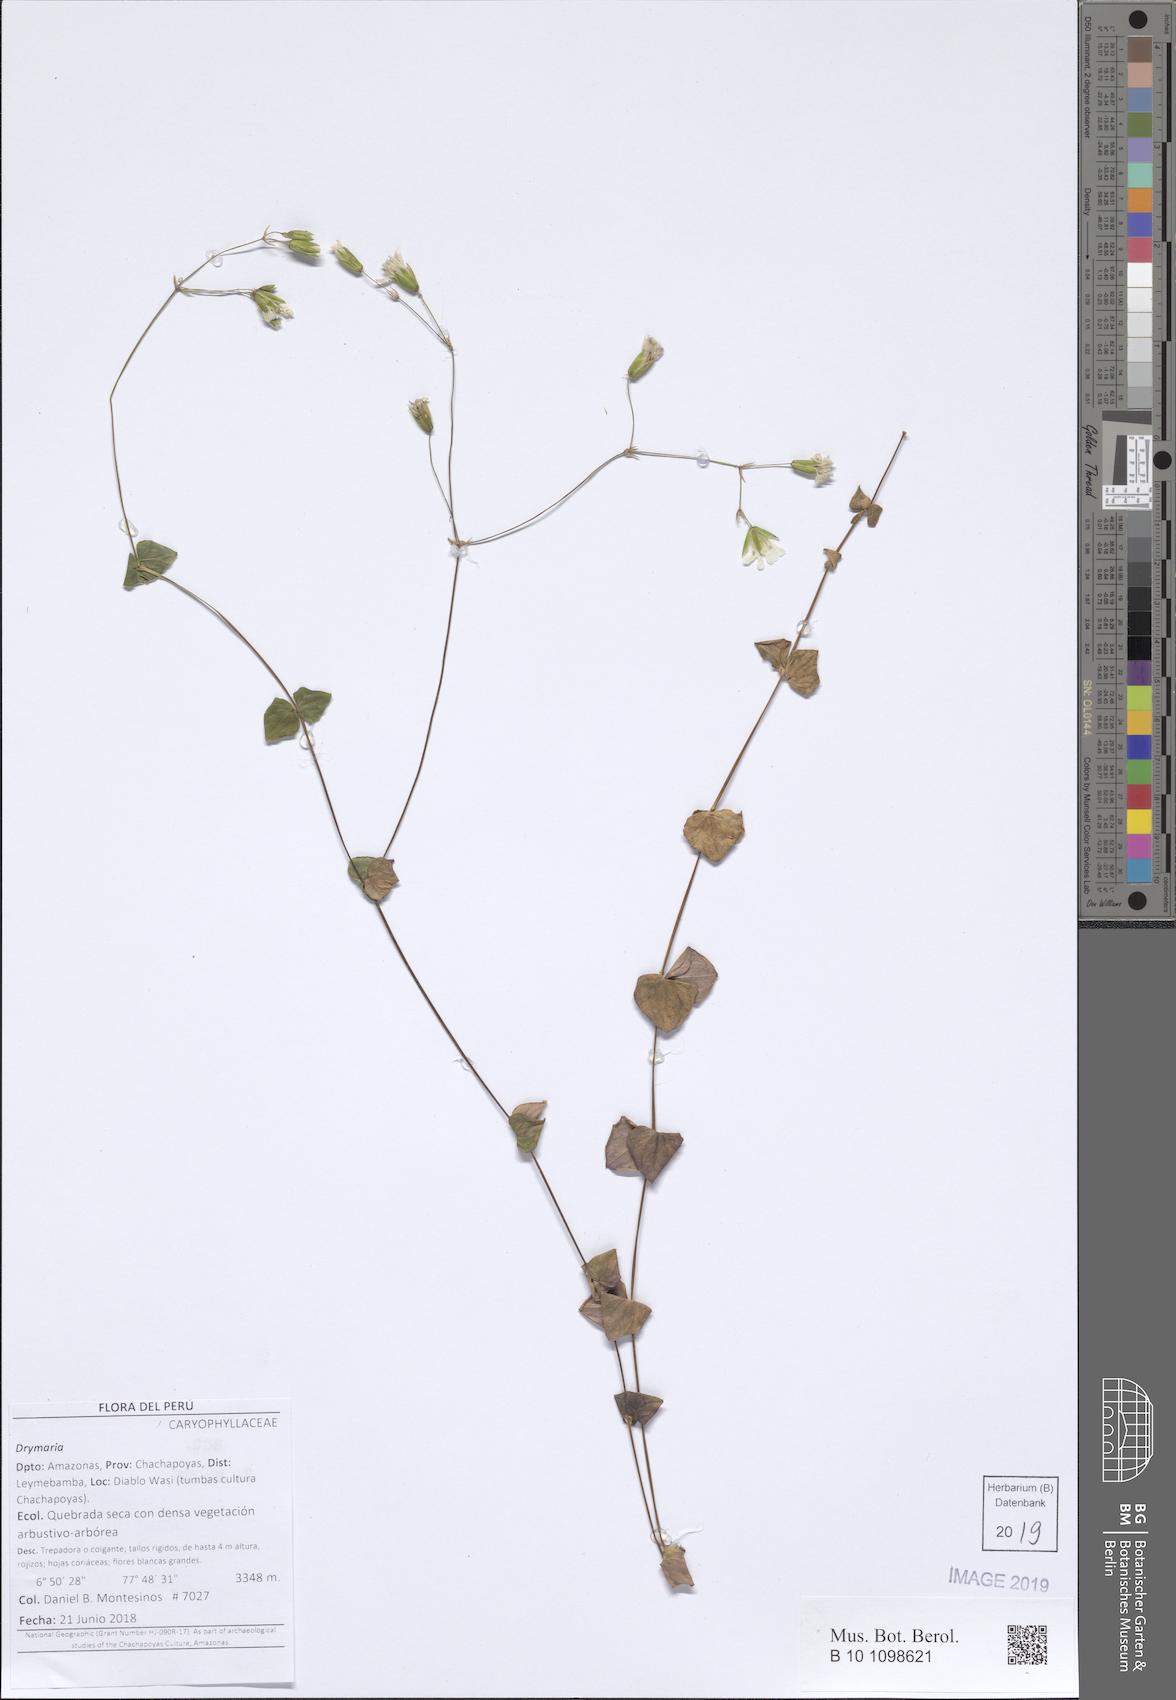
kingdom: Plantae
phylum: Tracheophyta
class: Magnoliopsida
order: Caryophyllales
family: Caryophyllaceae
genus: Drymaria
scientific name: Drymaria
